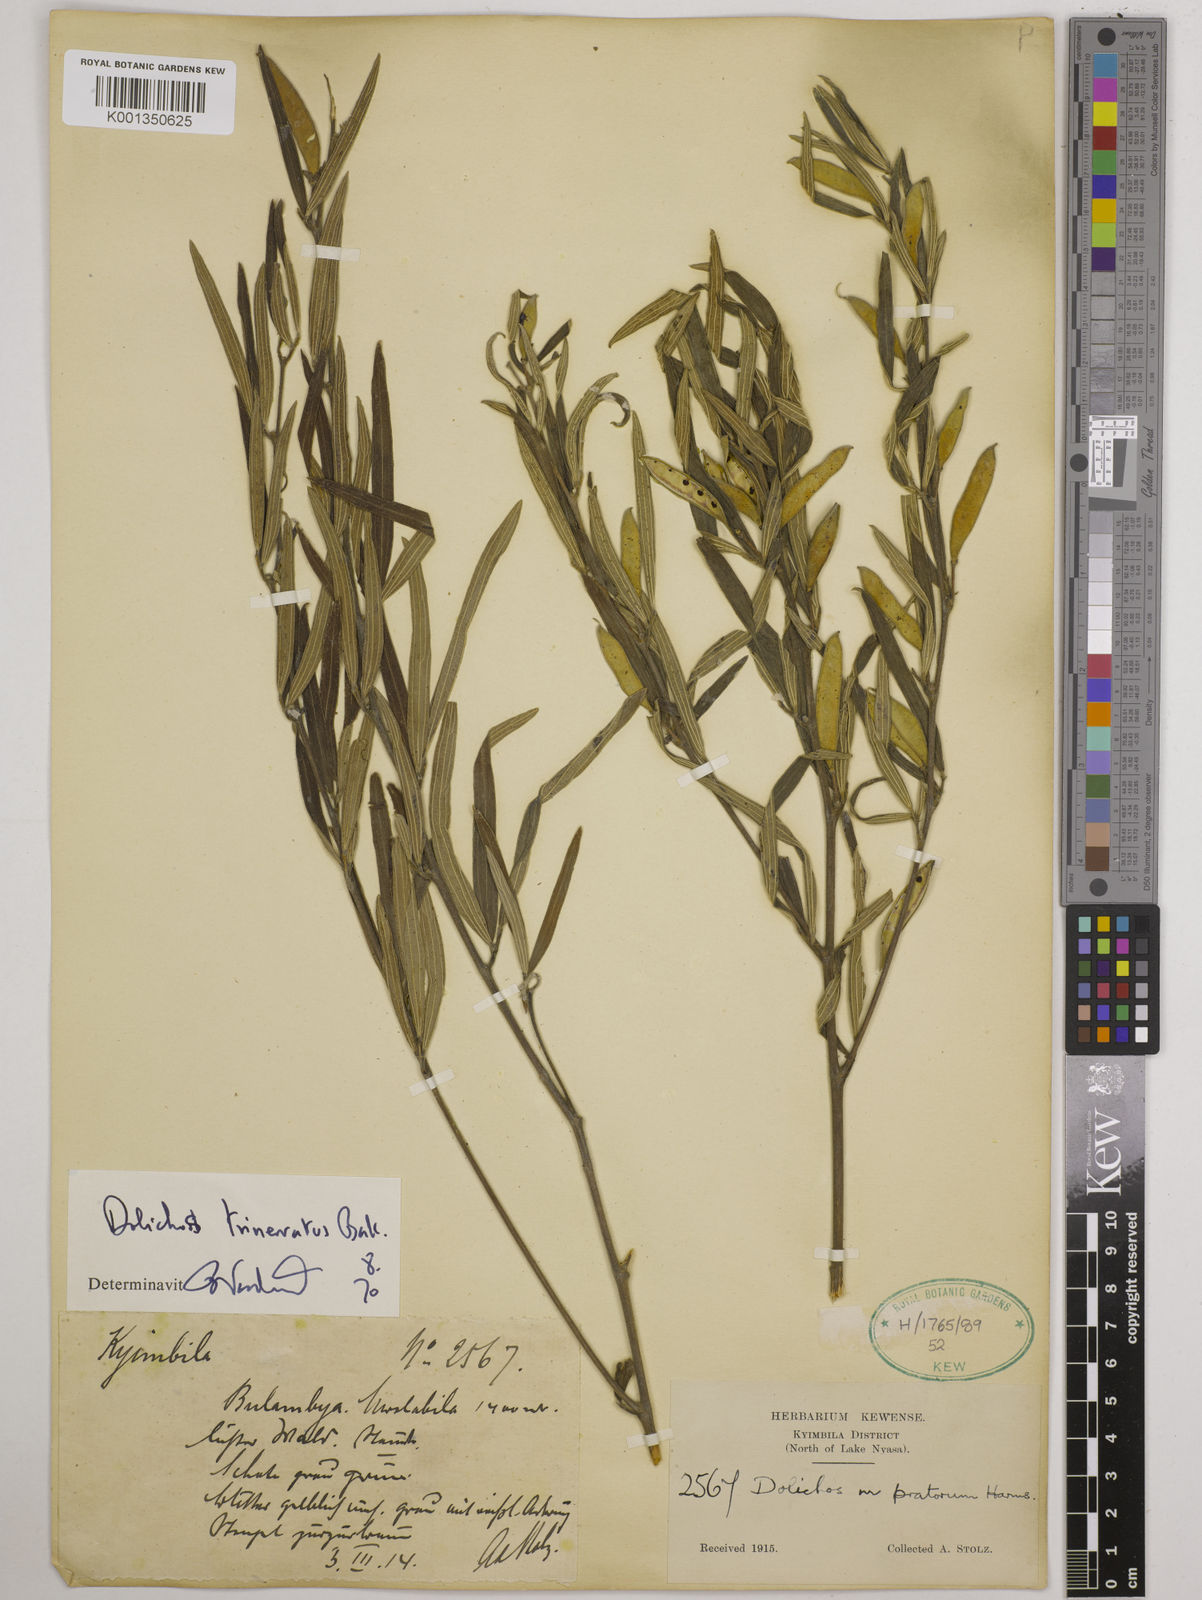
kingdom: Plantae
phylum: Tracheophyta
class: Magnoliopsida
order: Fabales
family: Fabaceae
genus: Dolichos
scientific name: Dolichos trinervatus
